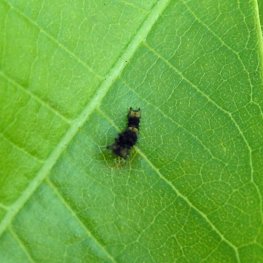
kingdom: Animalia
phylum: Arthropoda
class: Insecta
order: Lepidoptera
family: Papilionidae
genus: Papilio
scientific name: Papilio cresphontes
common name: Eastern Giant Swallowtail
